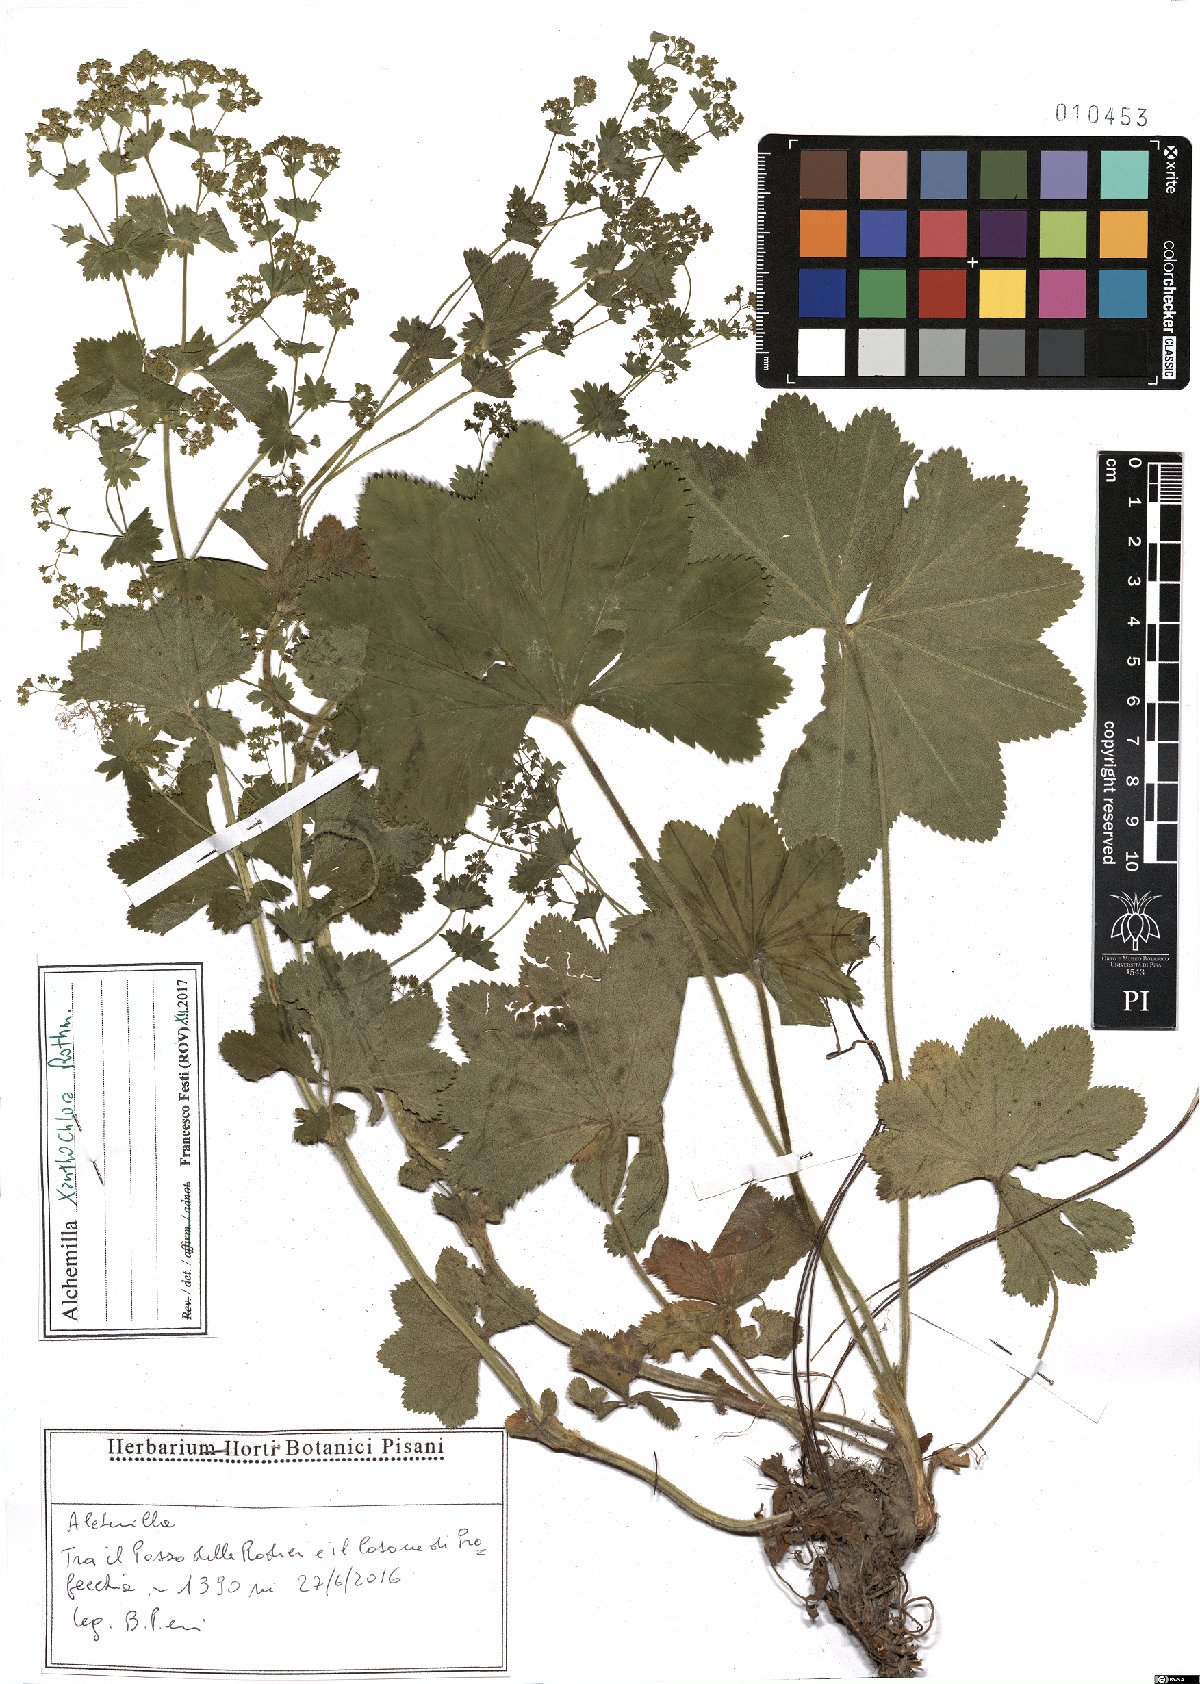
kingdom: Plantae
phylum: Tracheophyta
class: Magnoliopsida
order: Rosales
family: Rosaceae
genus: Alchemilla
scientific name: Alchemilla xanthochlora
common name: Intermediate lady's-mantle
